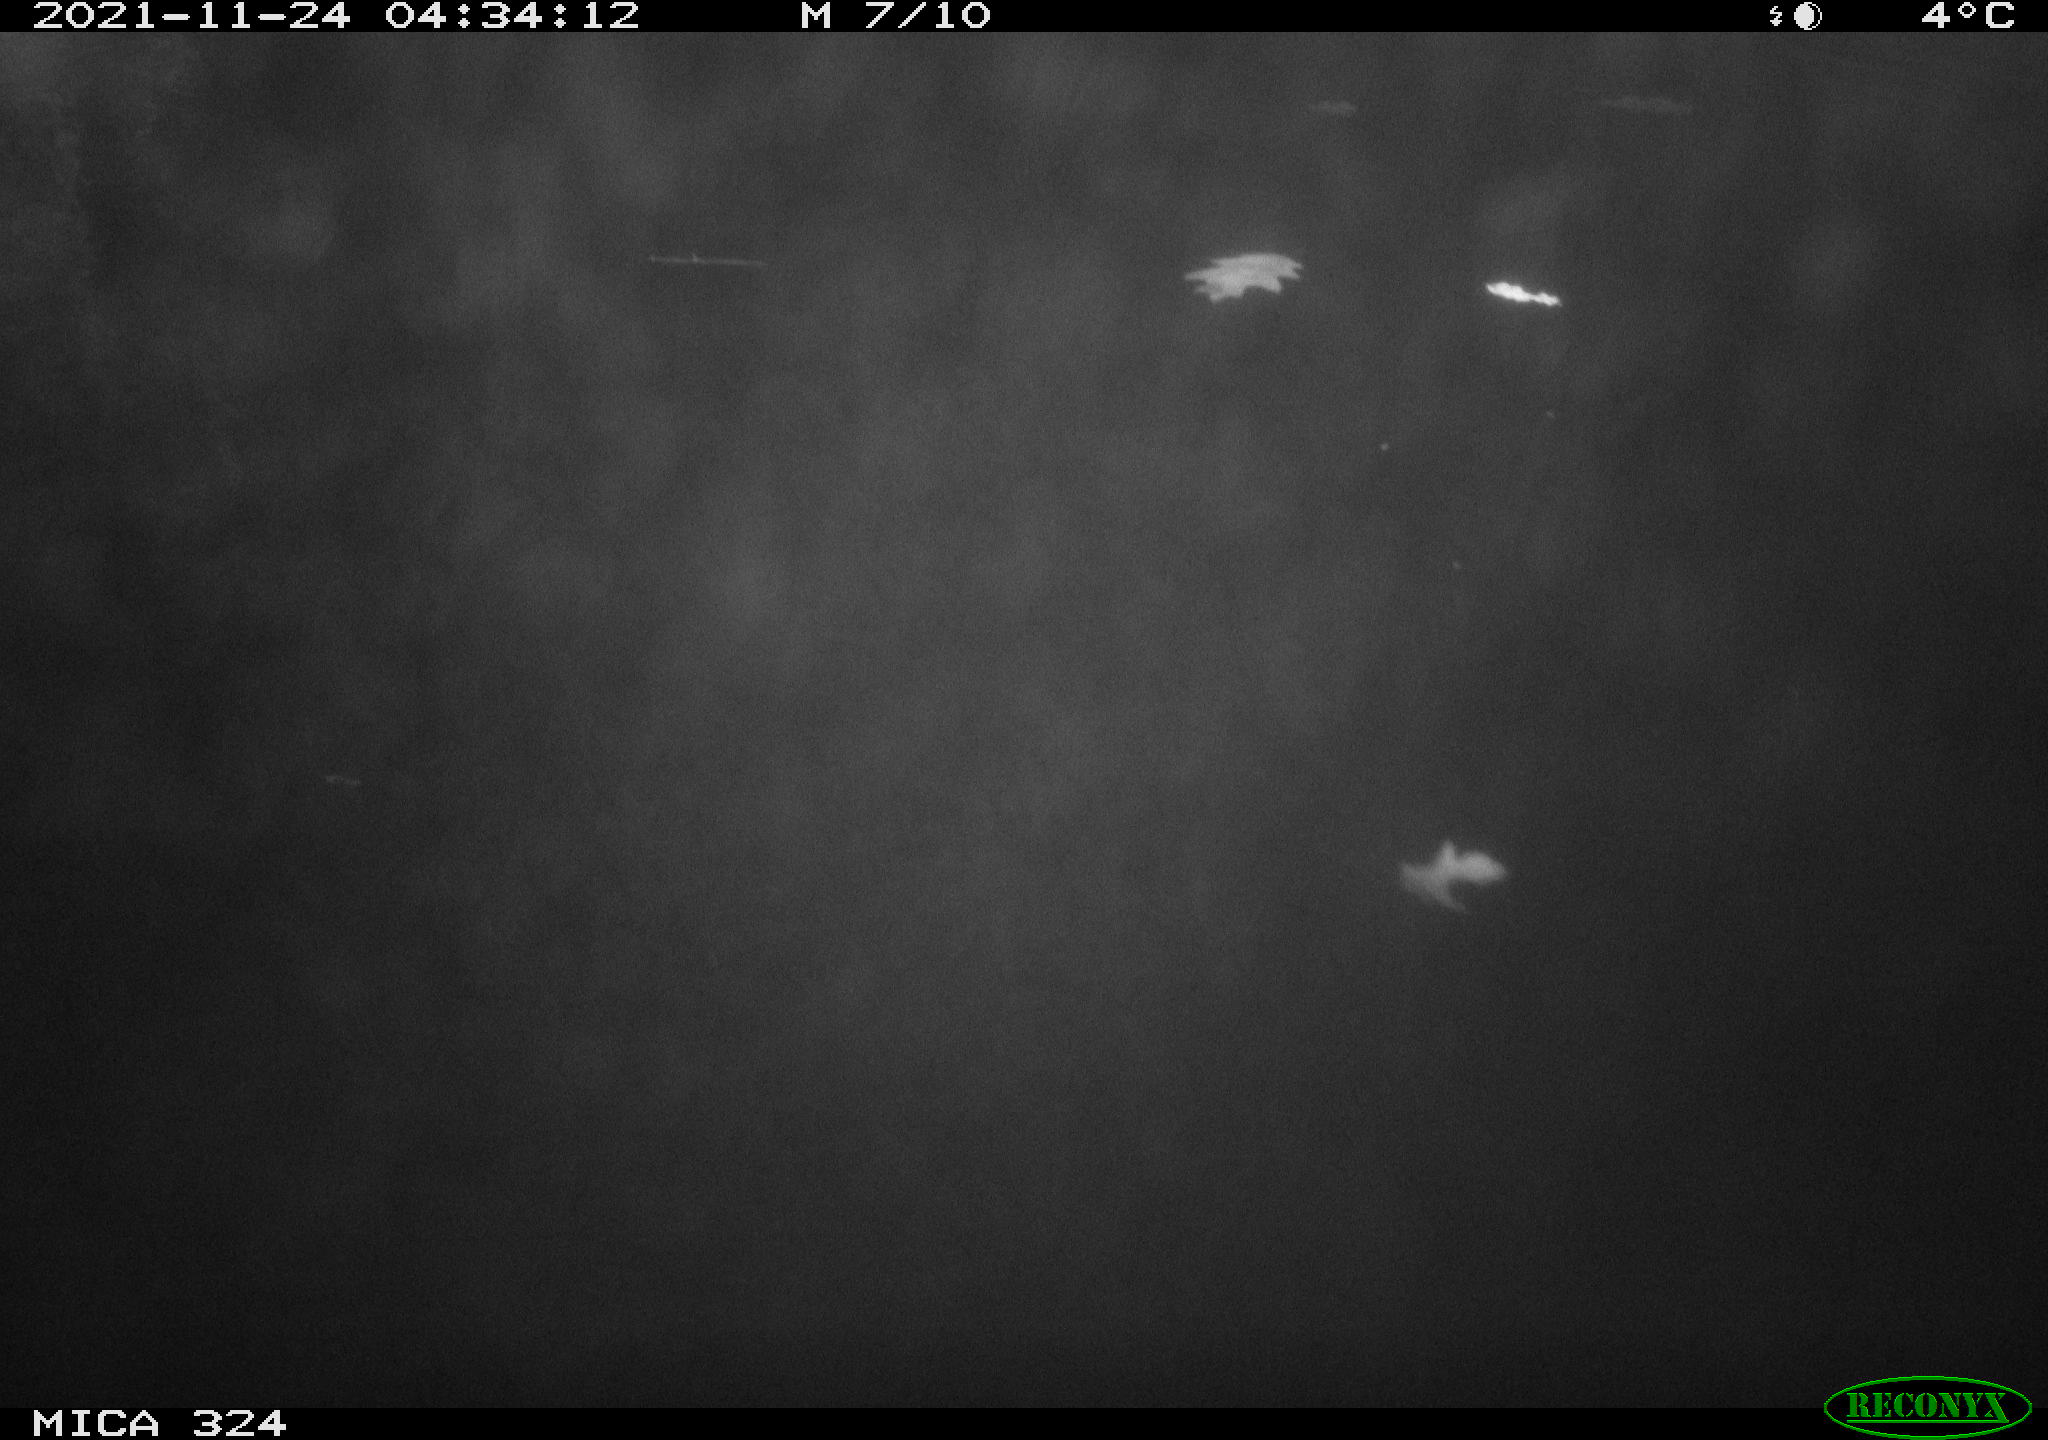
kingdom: Animalia
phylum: Chordata
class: Mammalia
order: Rodentia
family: Cricetidae
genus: Ondatra
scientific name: Ondatra zibethicus
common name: Muskrat
